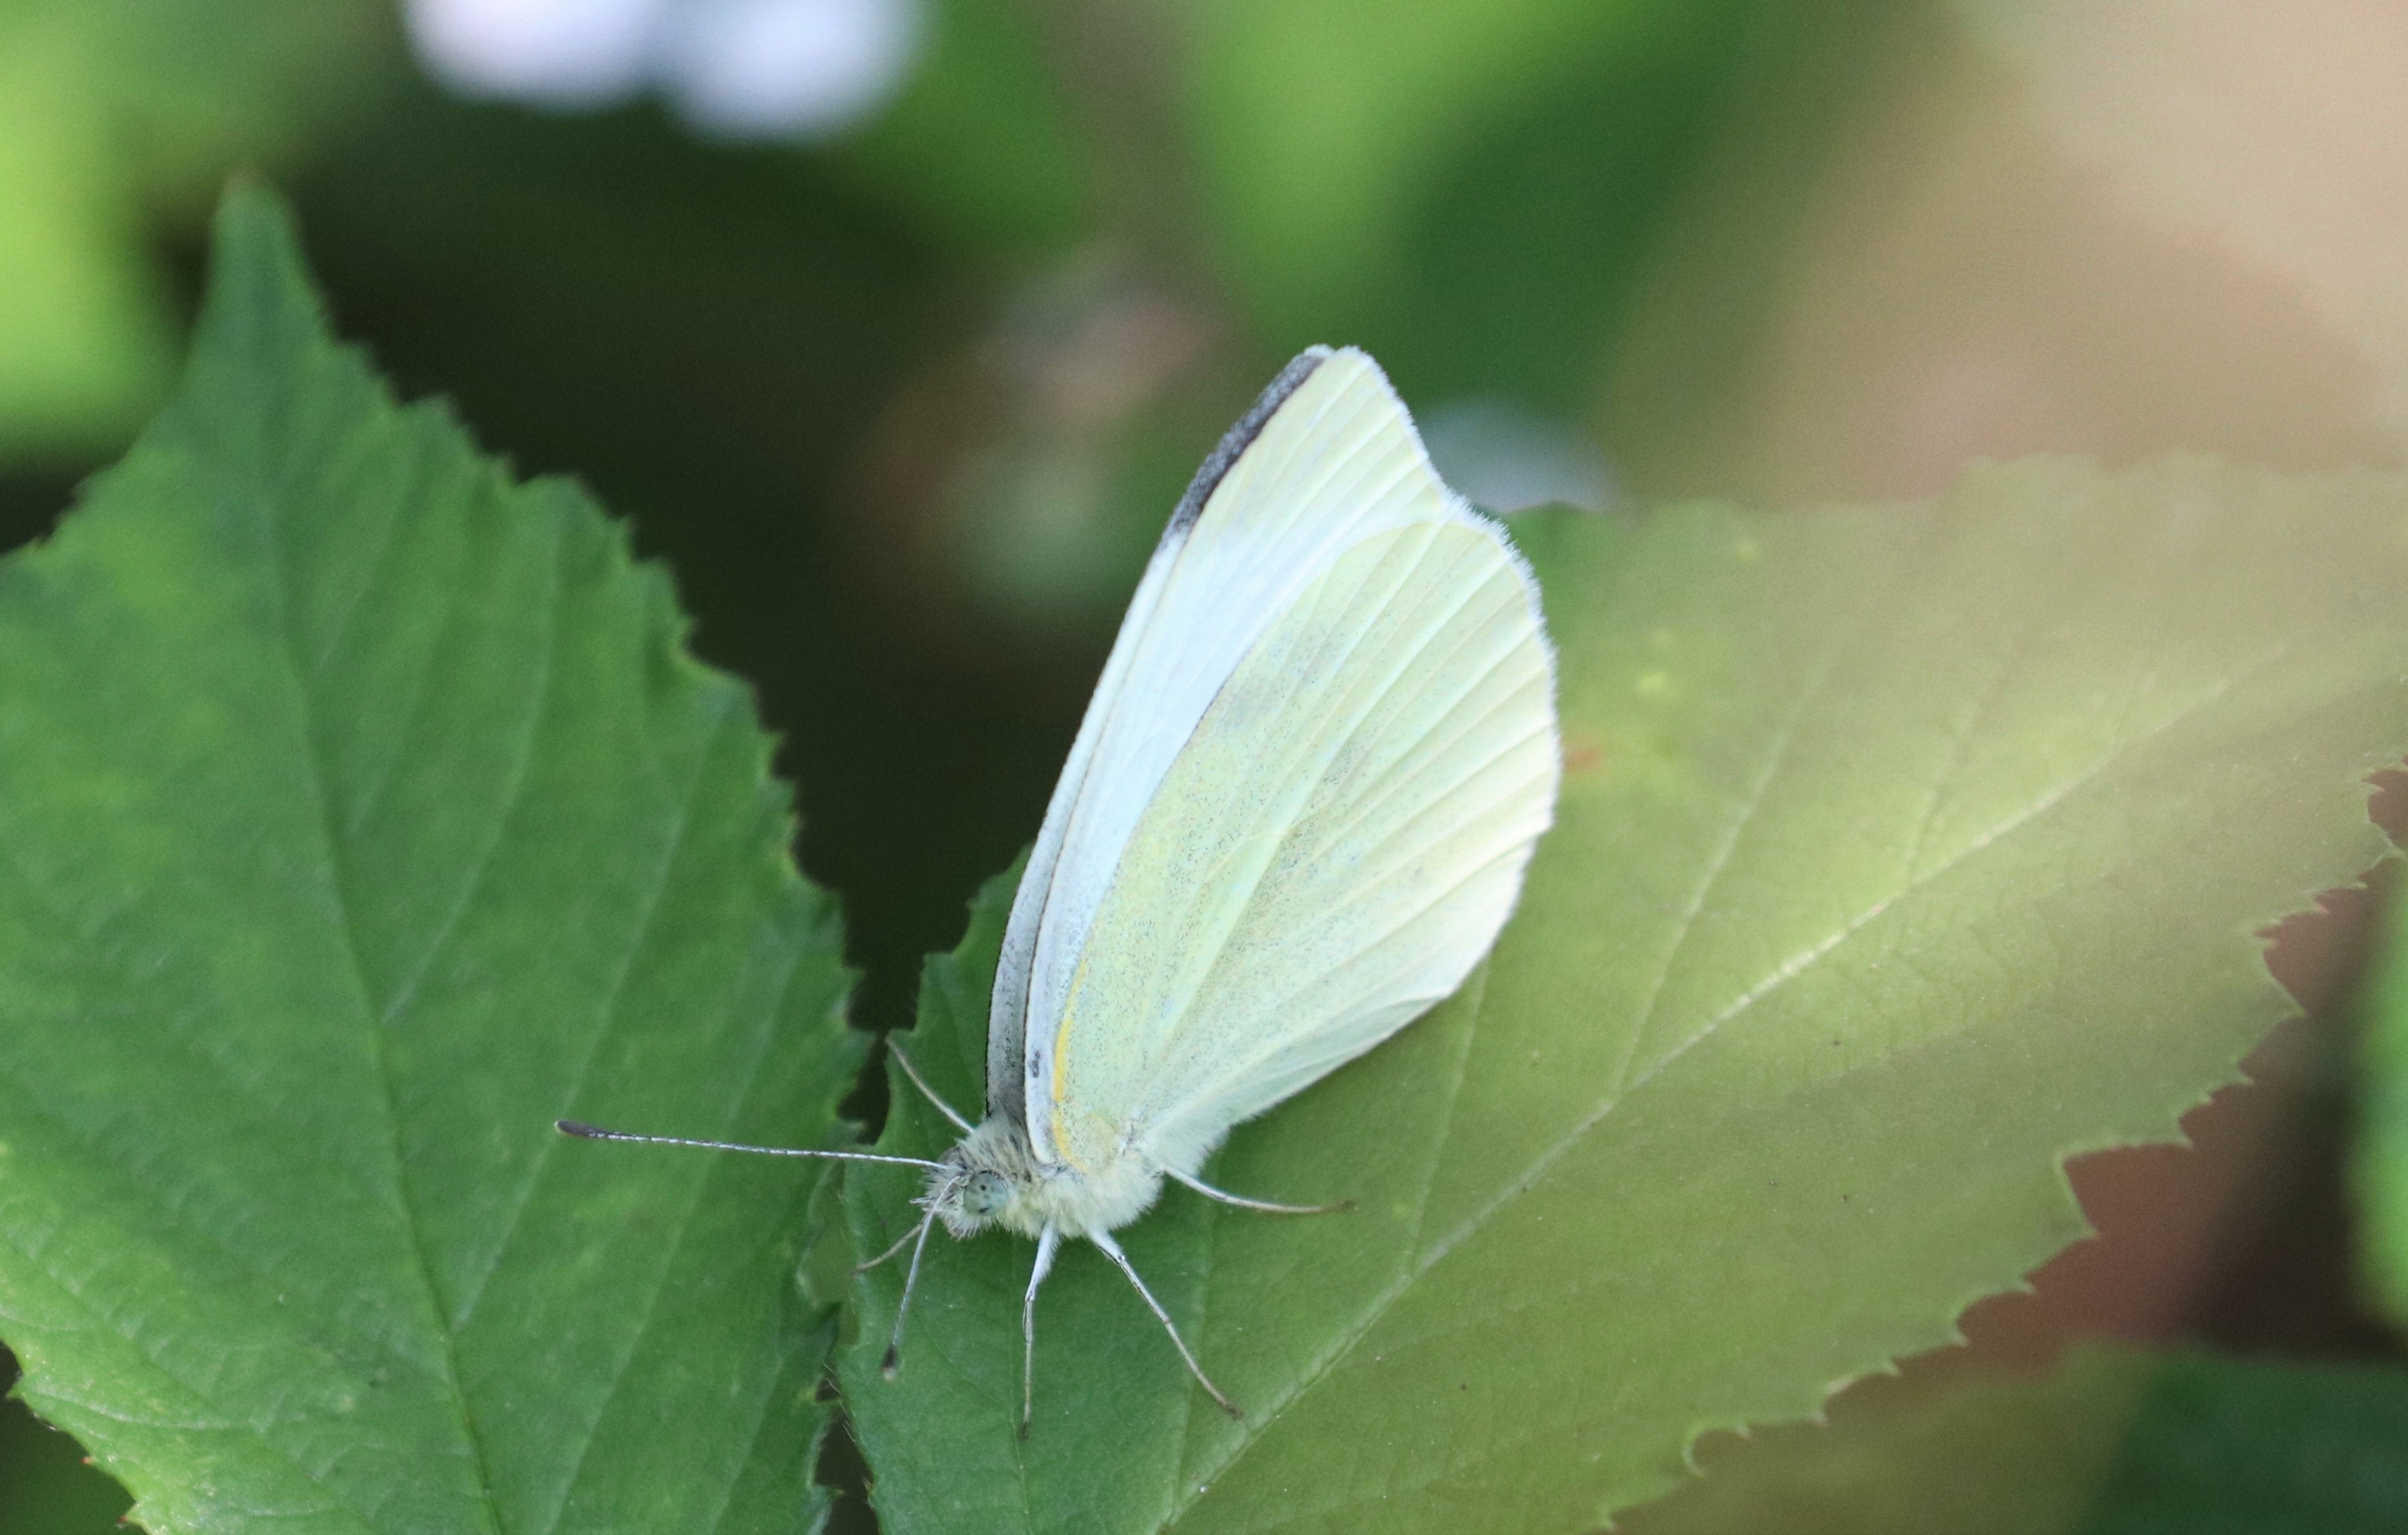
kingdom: Animalia
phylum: Arthropoda
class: Insecta
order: Lepidoptera
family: Pieridae
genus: Pieris
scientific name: Pieris rapae
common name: Lille kålsommerfugl
